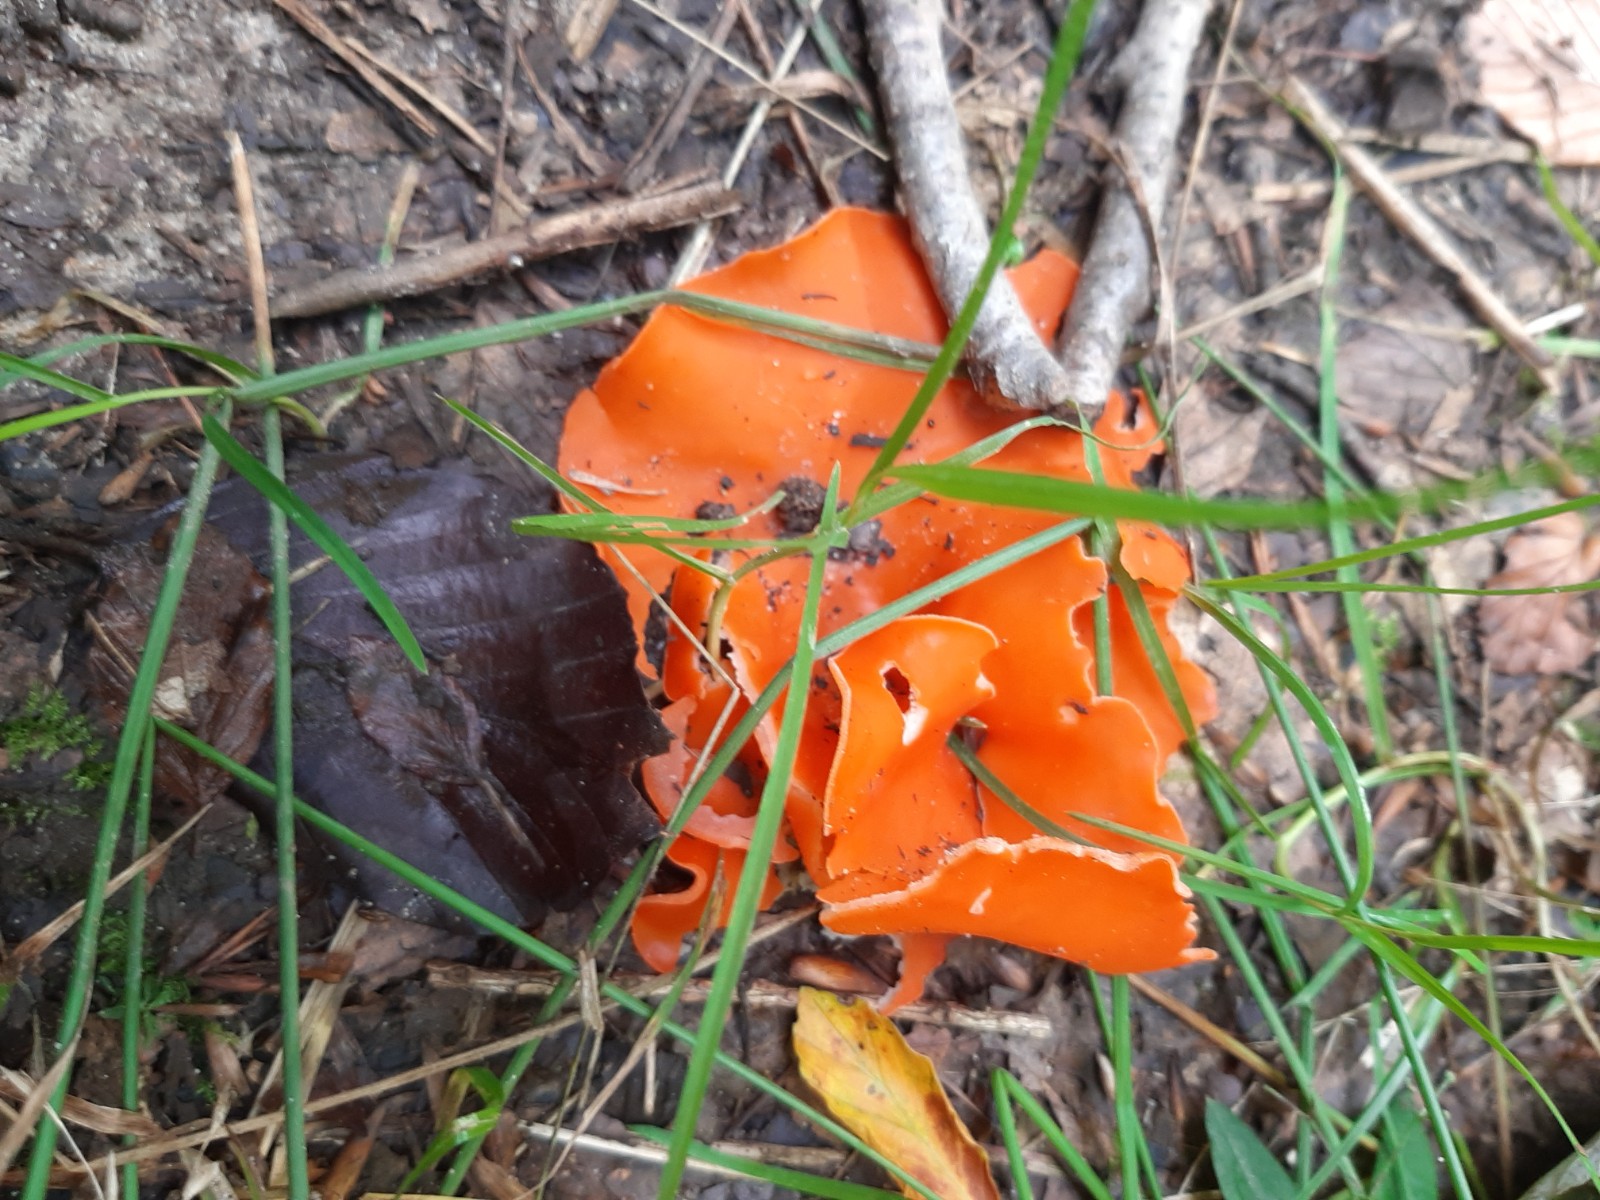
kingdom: Fungi
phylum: Ascomycota
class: Pezizomycetes
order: Pezizales
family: Pyronemataceae
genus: Aleuria
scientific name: Aleuria aurantia
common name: almindelig orangebæger
